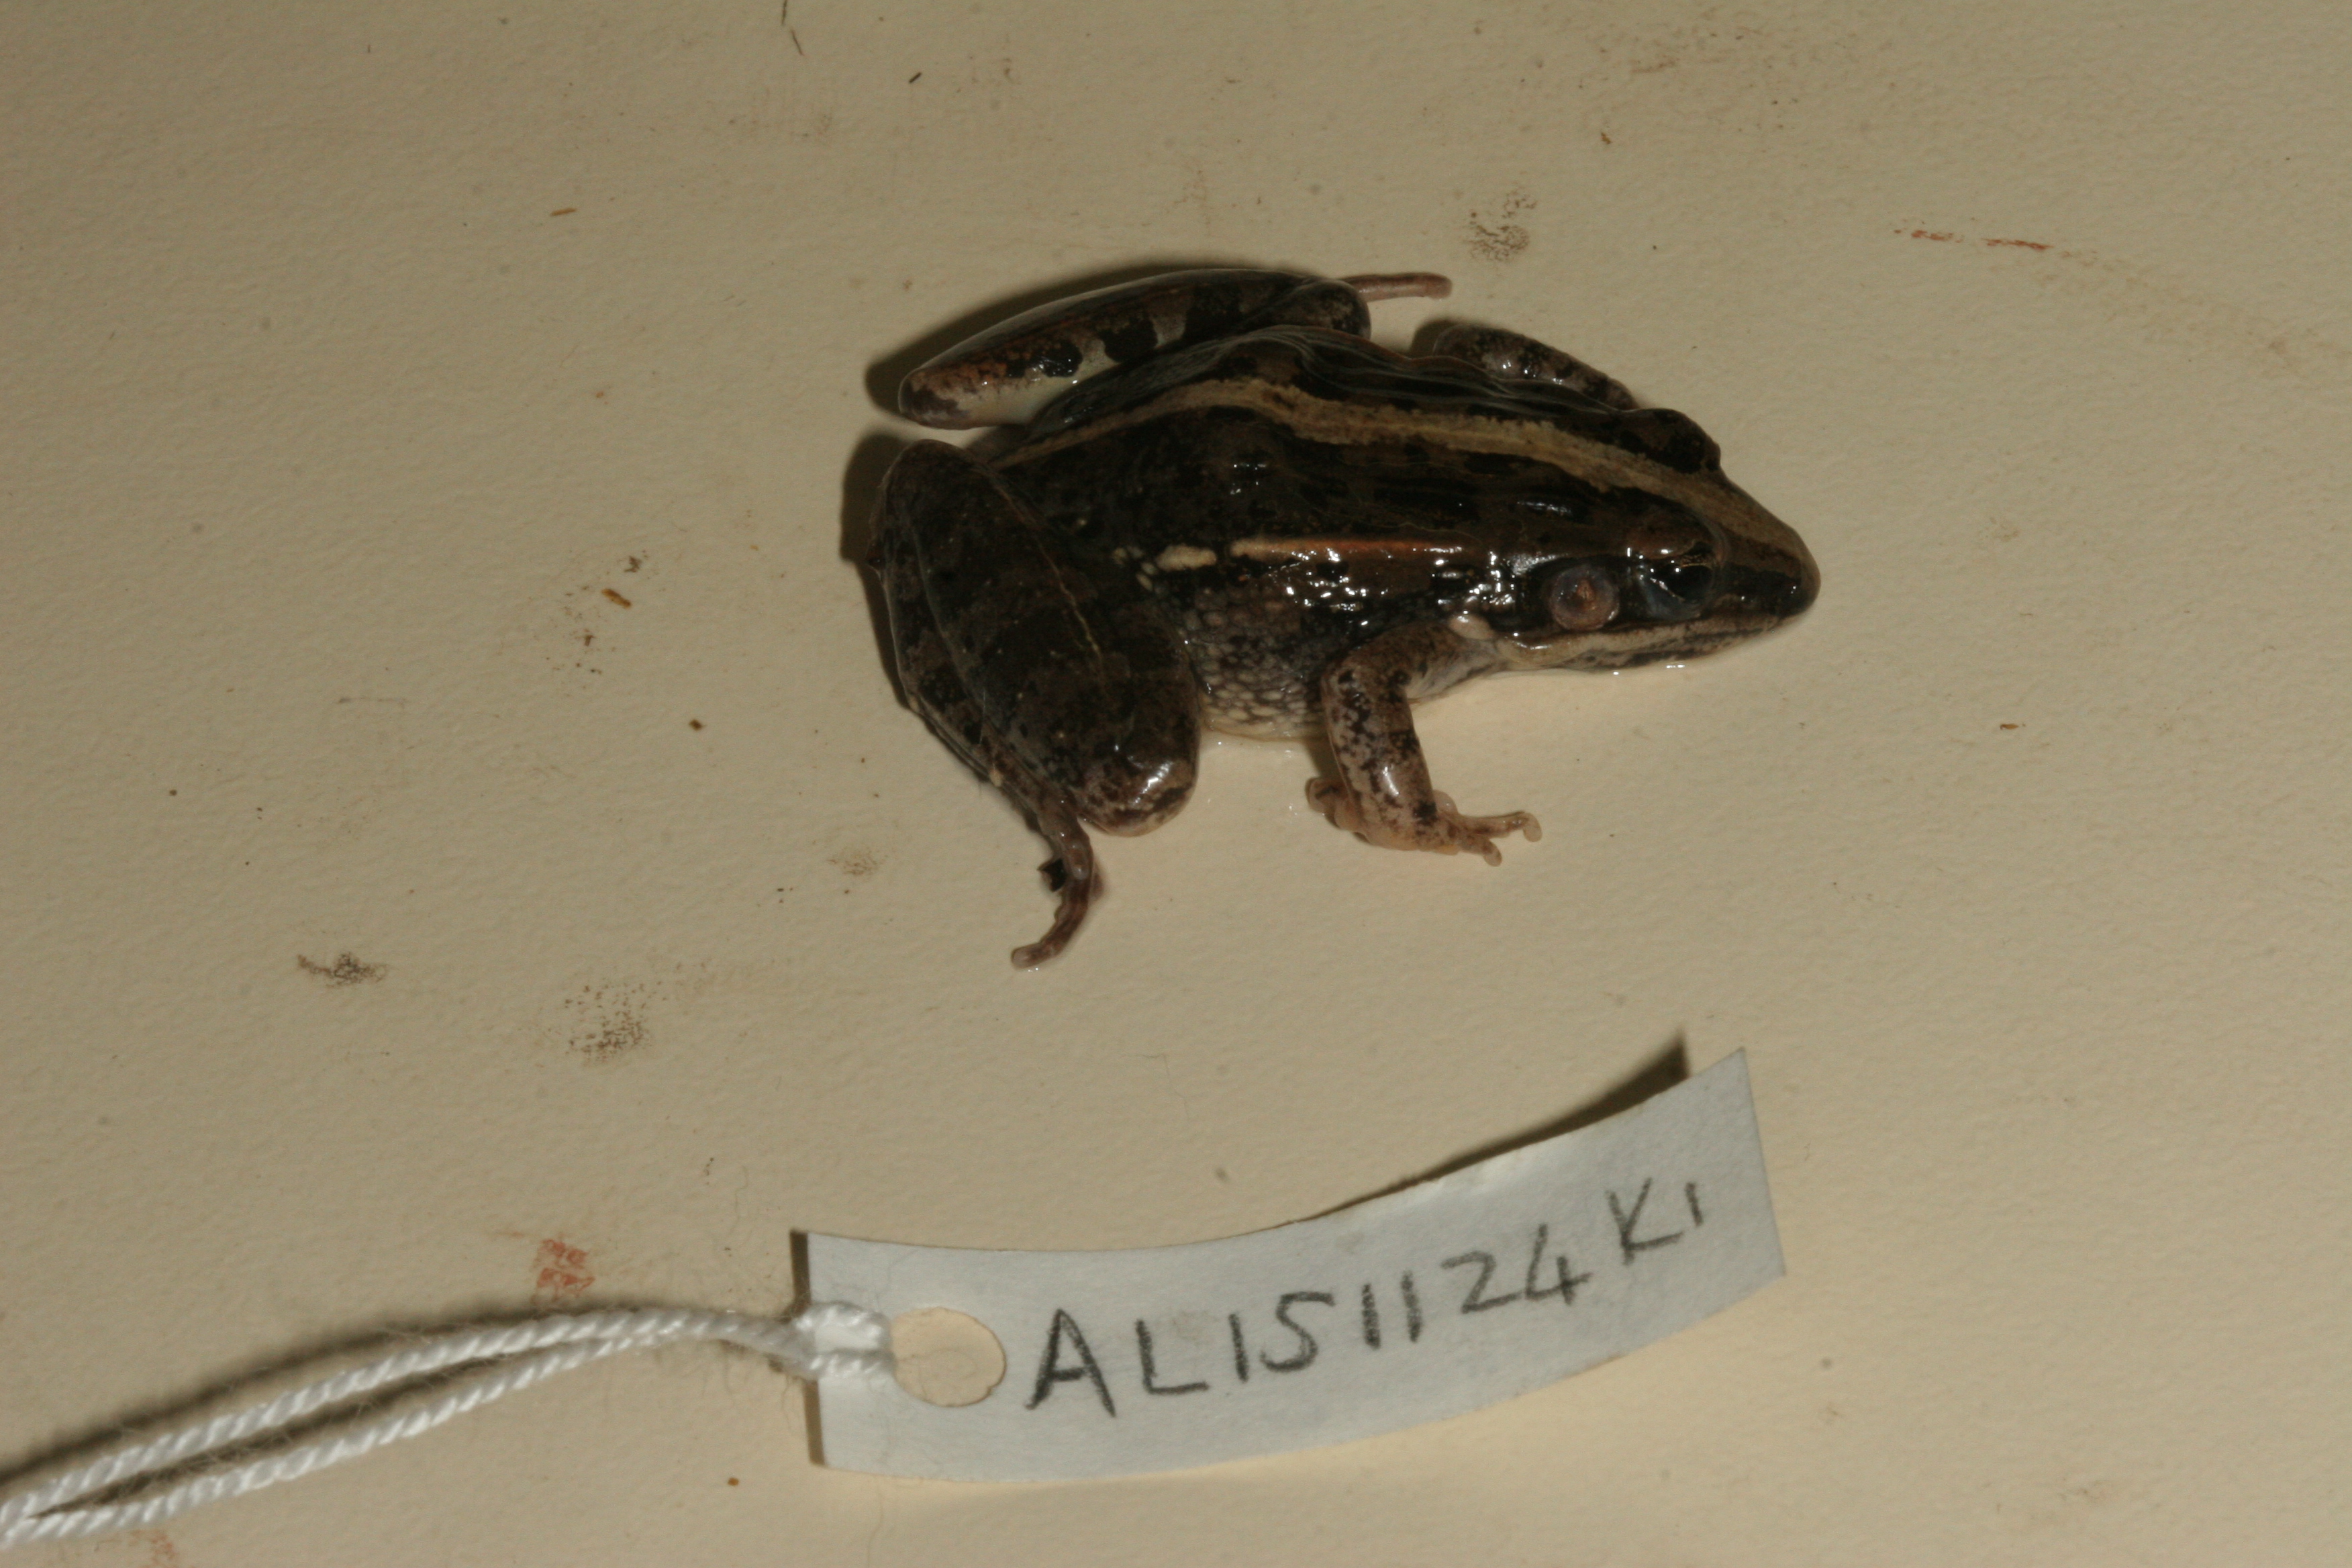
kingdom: Animalia
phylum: Chordata
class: Amphibia
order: Anura
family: Ptychadenidae
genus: Ptychadena
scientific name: Ptychadena mossambica
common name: Mozambique ridged frog
